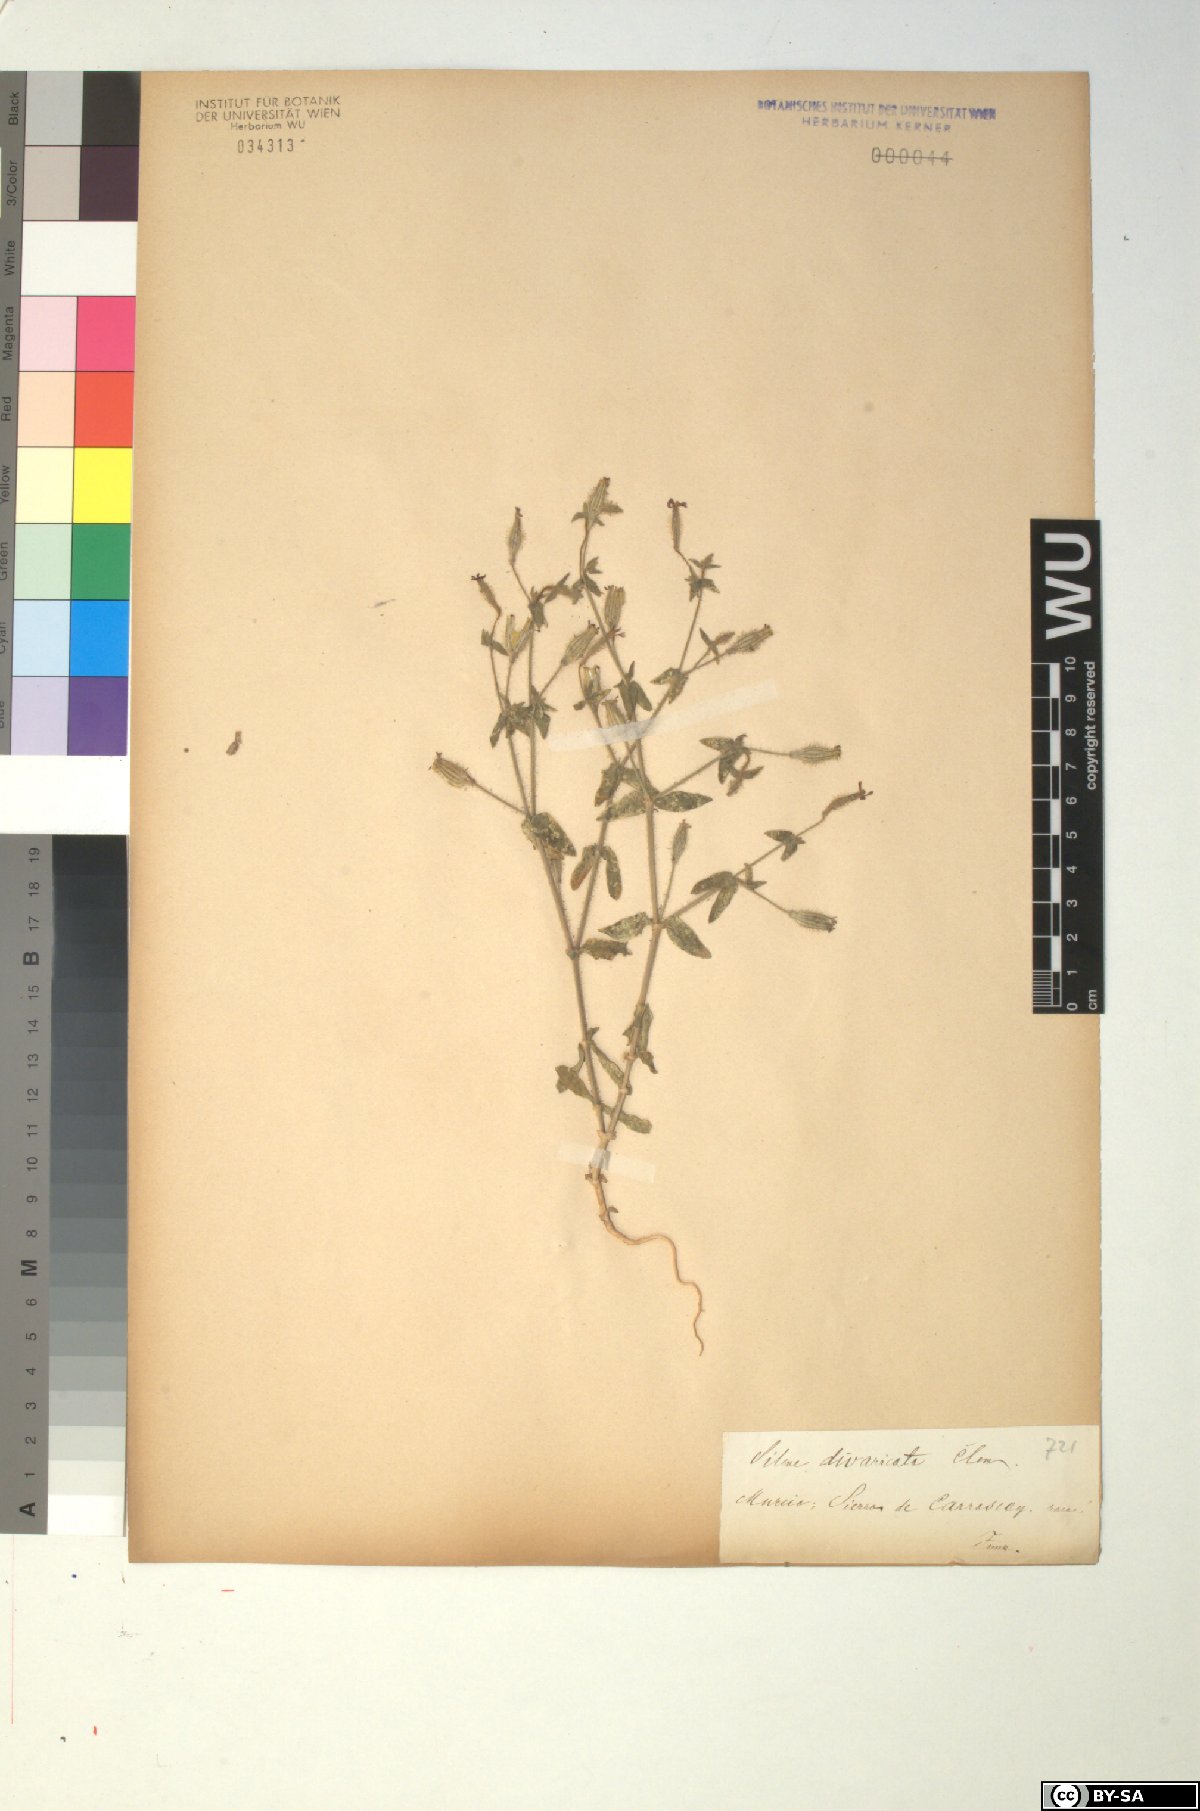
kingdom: Plantae
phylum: Tracheophyta
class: Magnoliopsida
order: Caryophyllales
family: Caryophyllaceae
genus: Silene
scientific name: Silene aellenii
